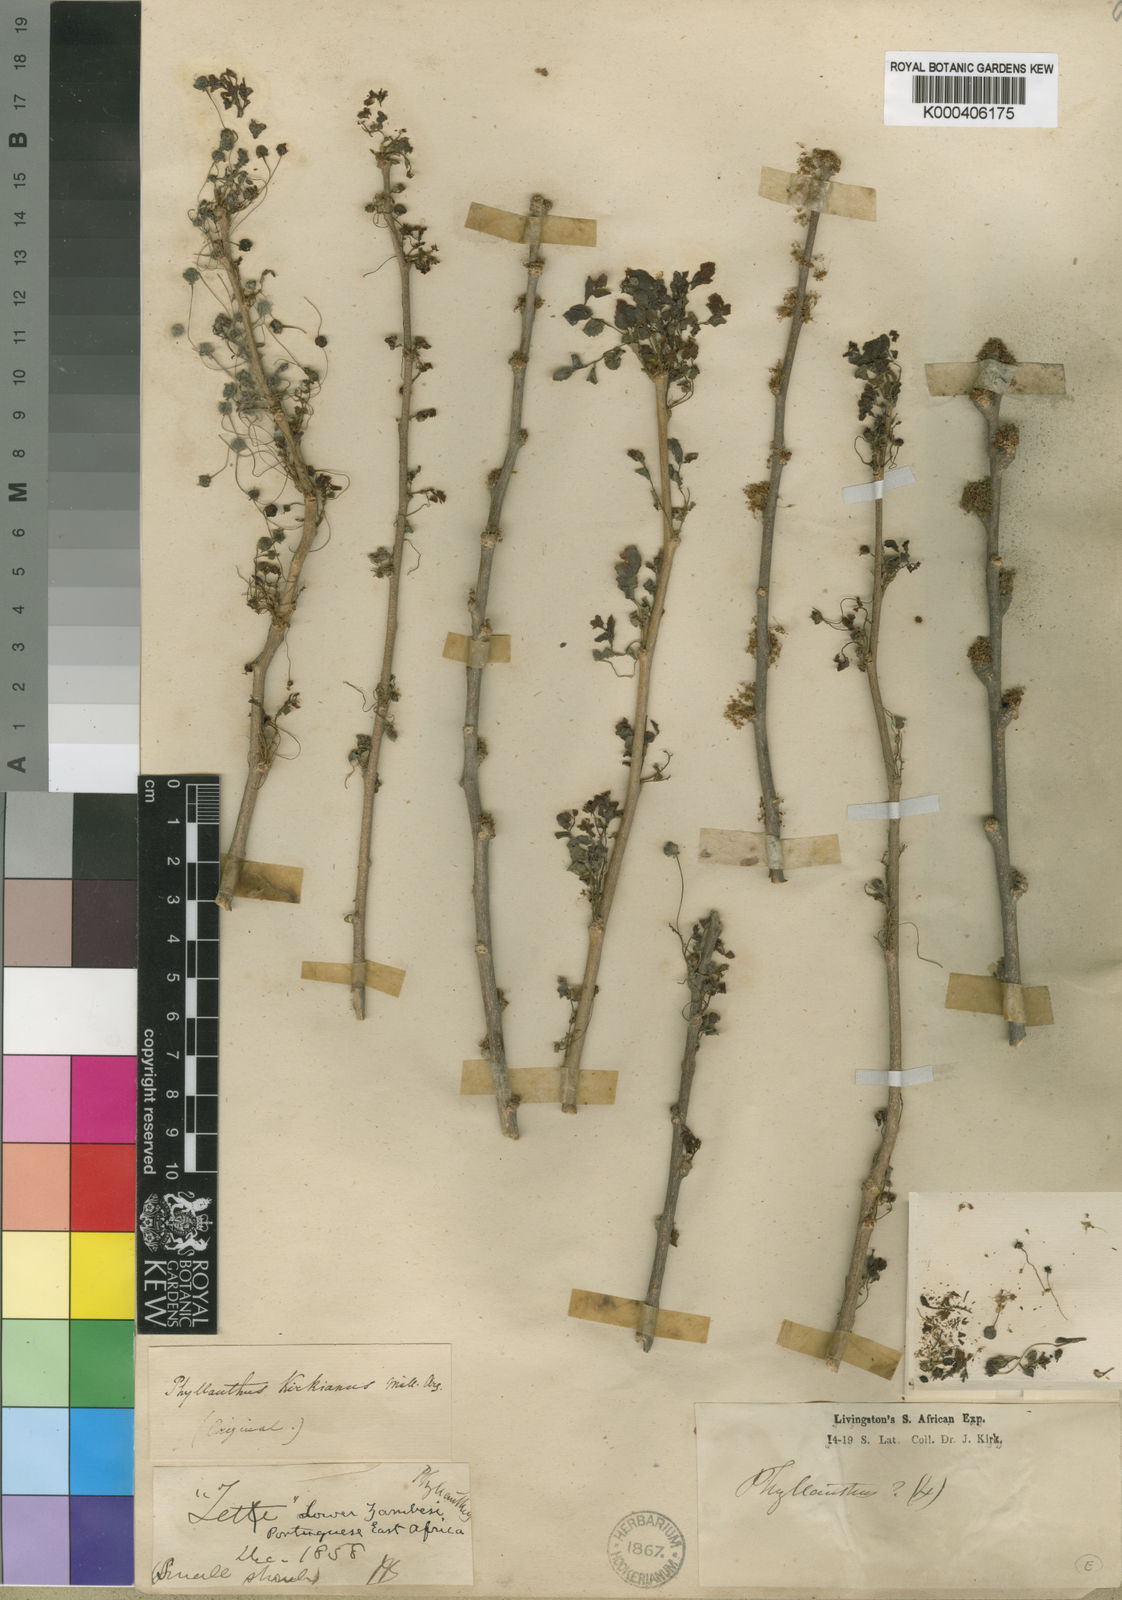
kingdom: Plantae
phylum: Tracheophyta
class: Magnoliopsida
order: Malpighiales
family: Phyllanthaceae
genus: Phyllanthus
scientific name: Phyllanthus pinnatus
